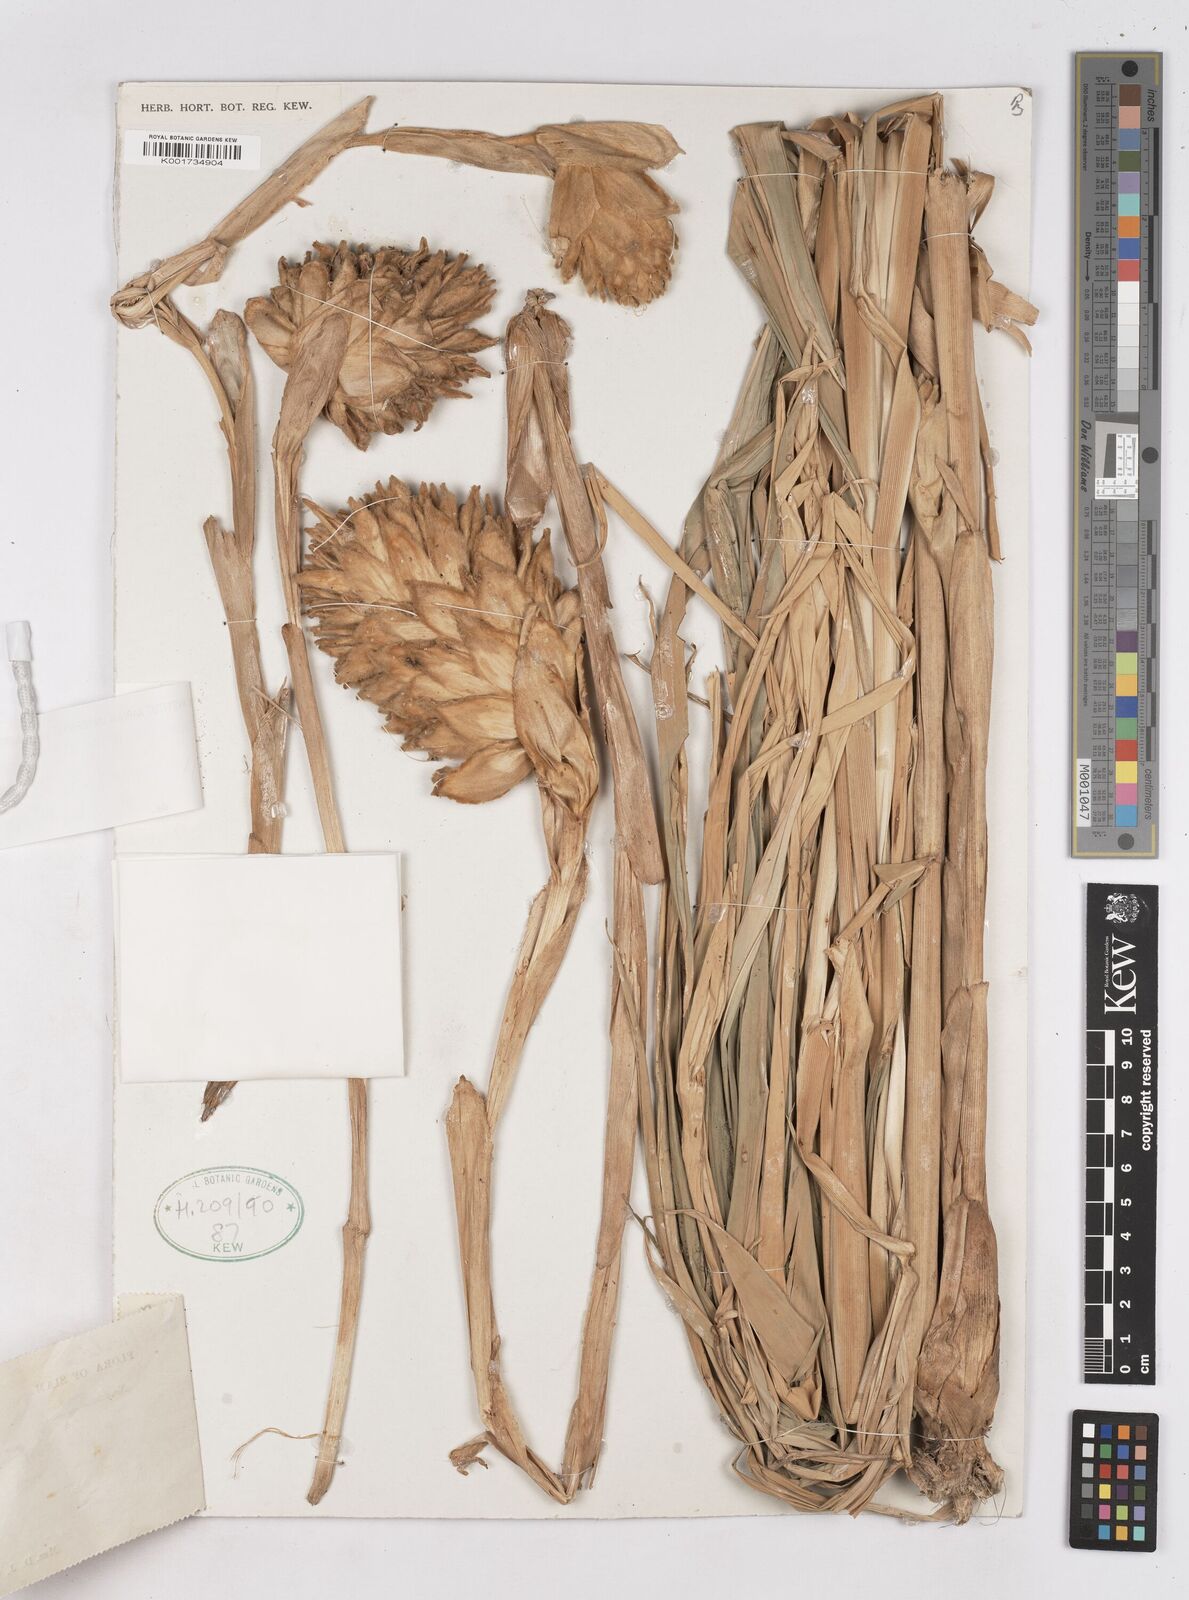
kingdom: Plantae
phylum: Tracheophyta
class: Liliopsida
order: Zingiberales
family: Zingiberaceae
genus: Zingiber
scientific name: Zingiber gramineum
